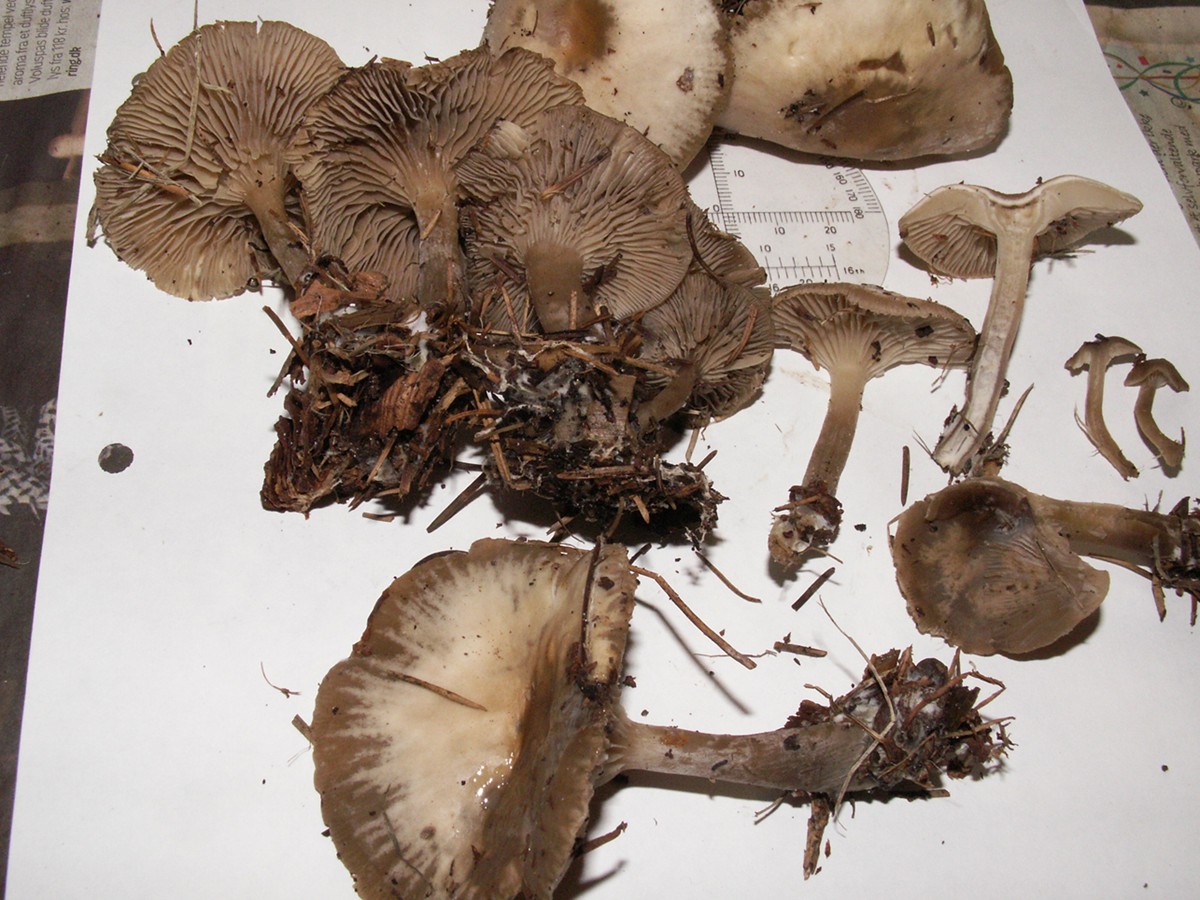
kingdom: Fungi
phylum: Basidiomycota
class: Agaricomycetes
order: Agaricales
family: Tricholomataceae
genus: Clitocybe
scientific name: Clitocybe metachroa
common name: grå tragthat
